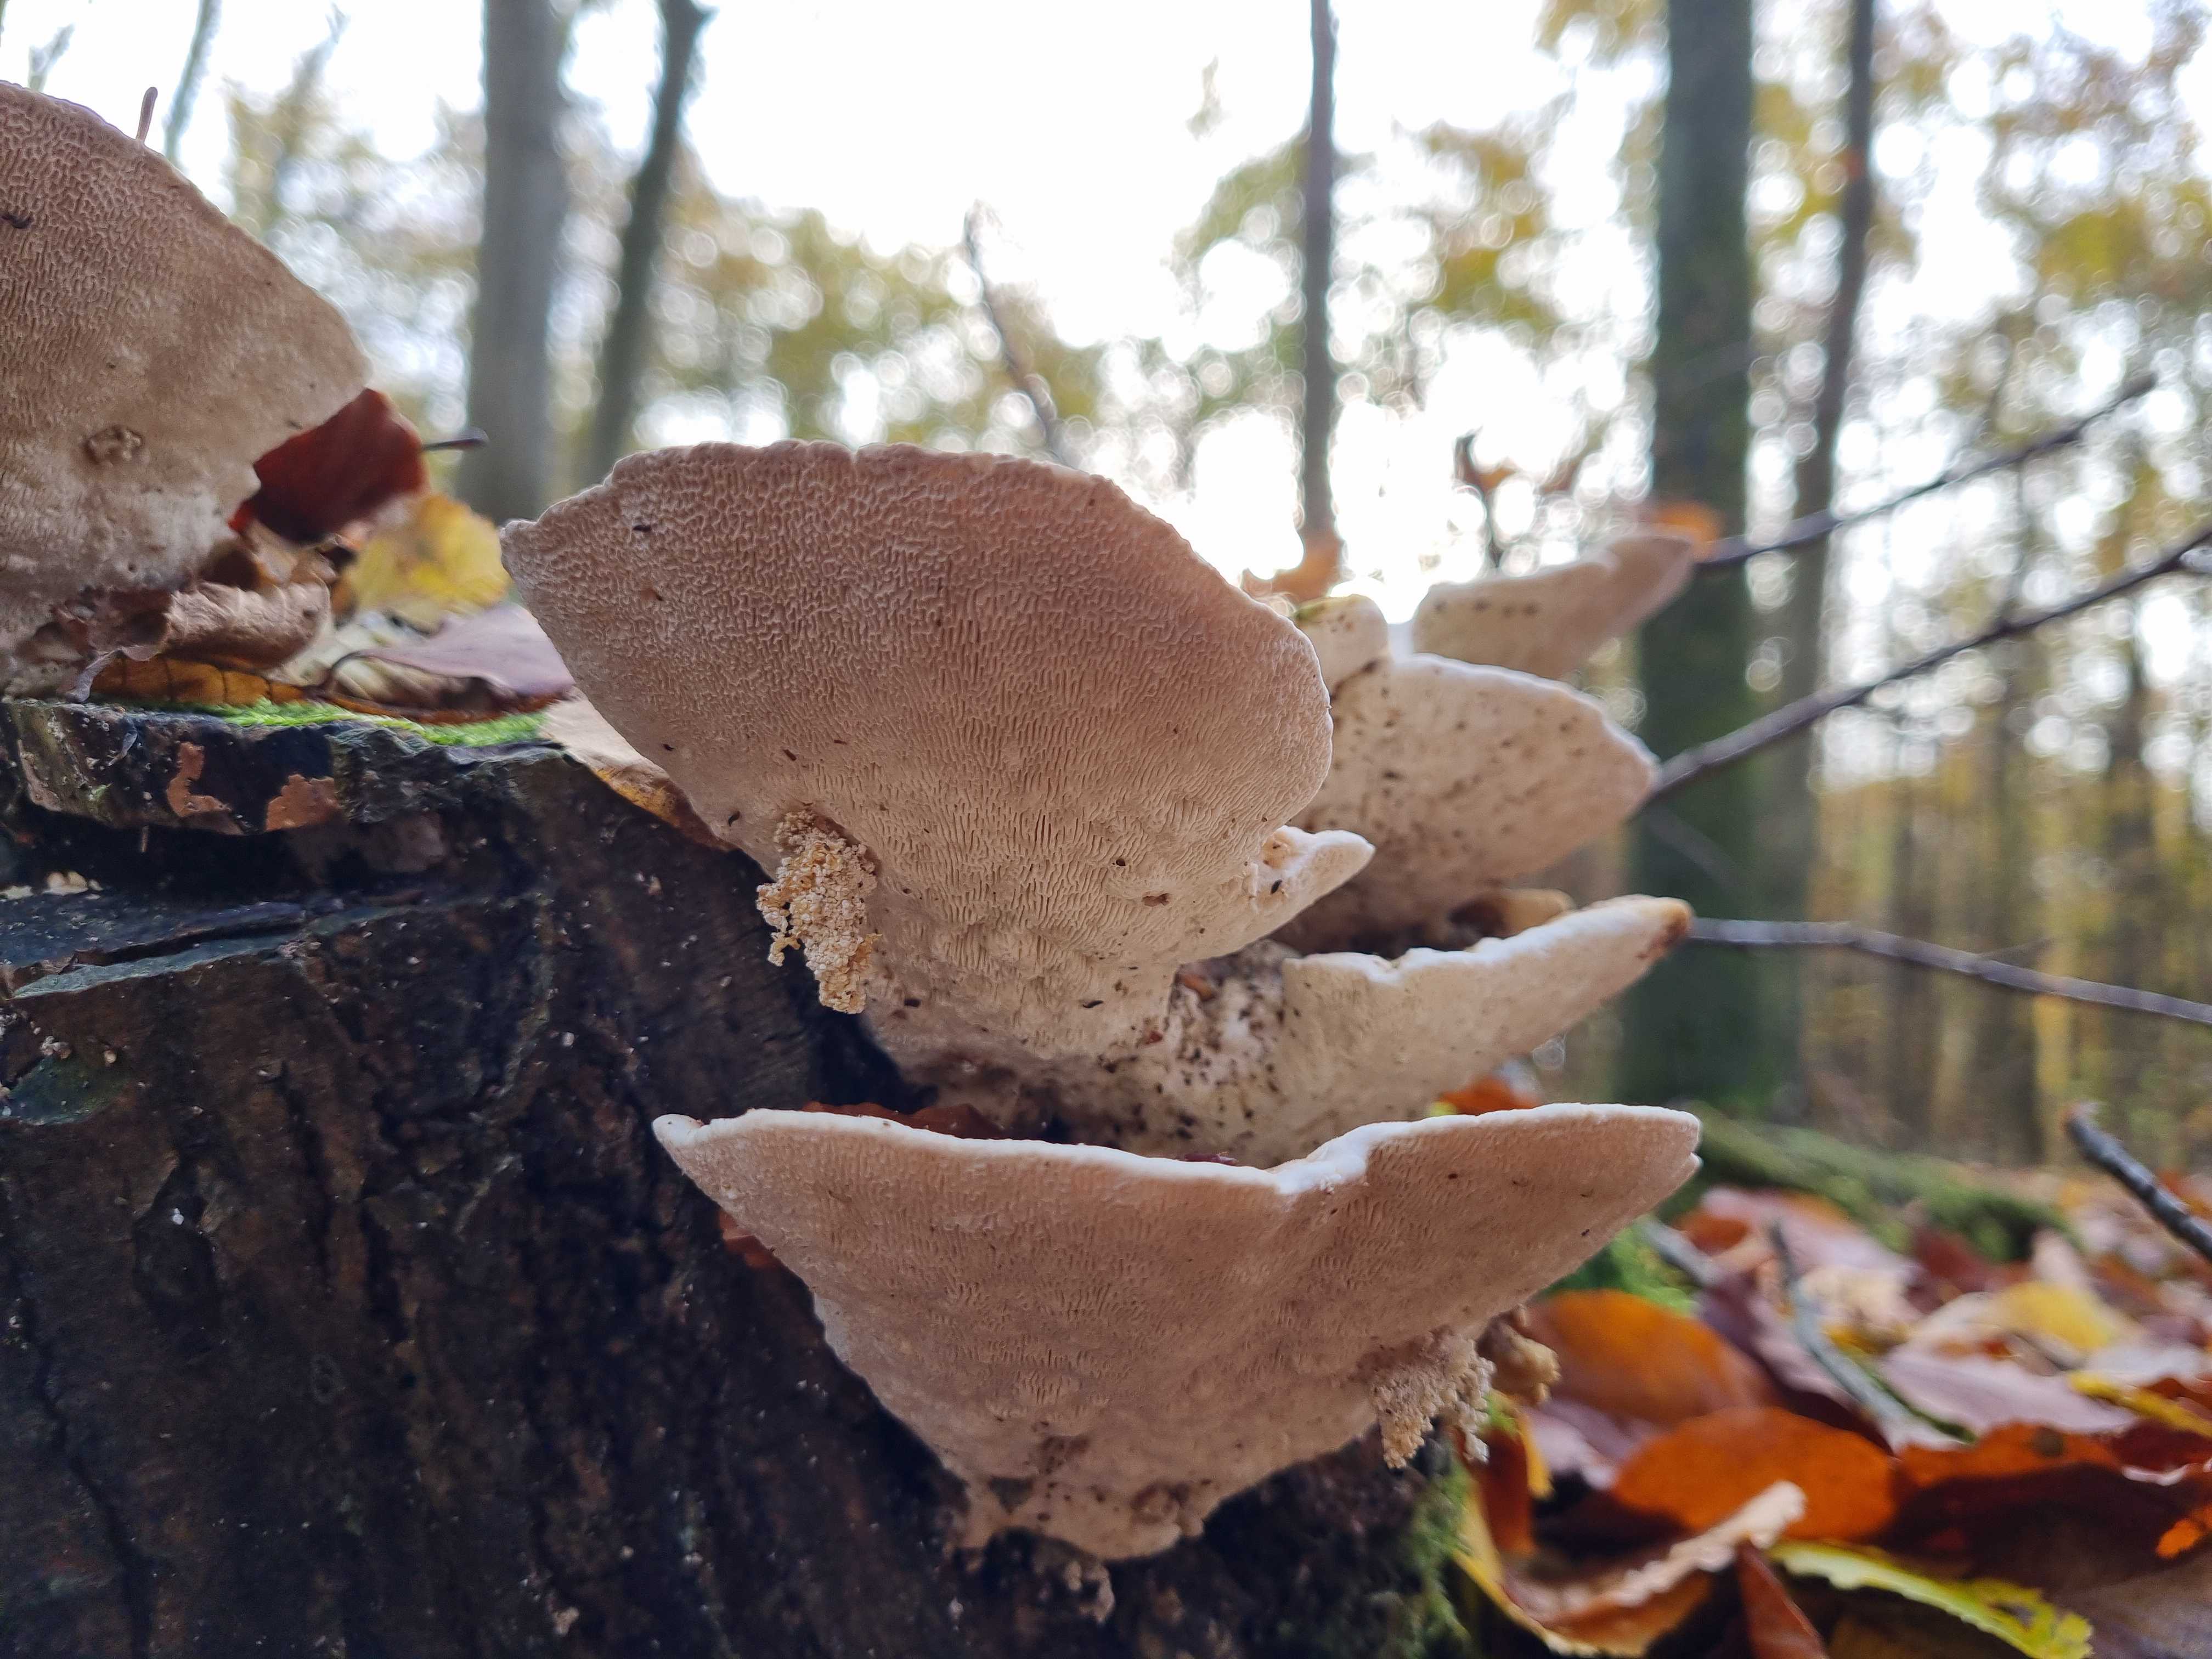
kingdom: Fungi
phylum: Basidiomycota
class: Agaricomycetes
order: Polyporales
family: Polyporaceae
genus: Trametes
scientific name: Trametes gibbosa
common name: puklet læderporesvamp
